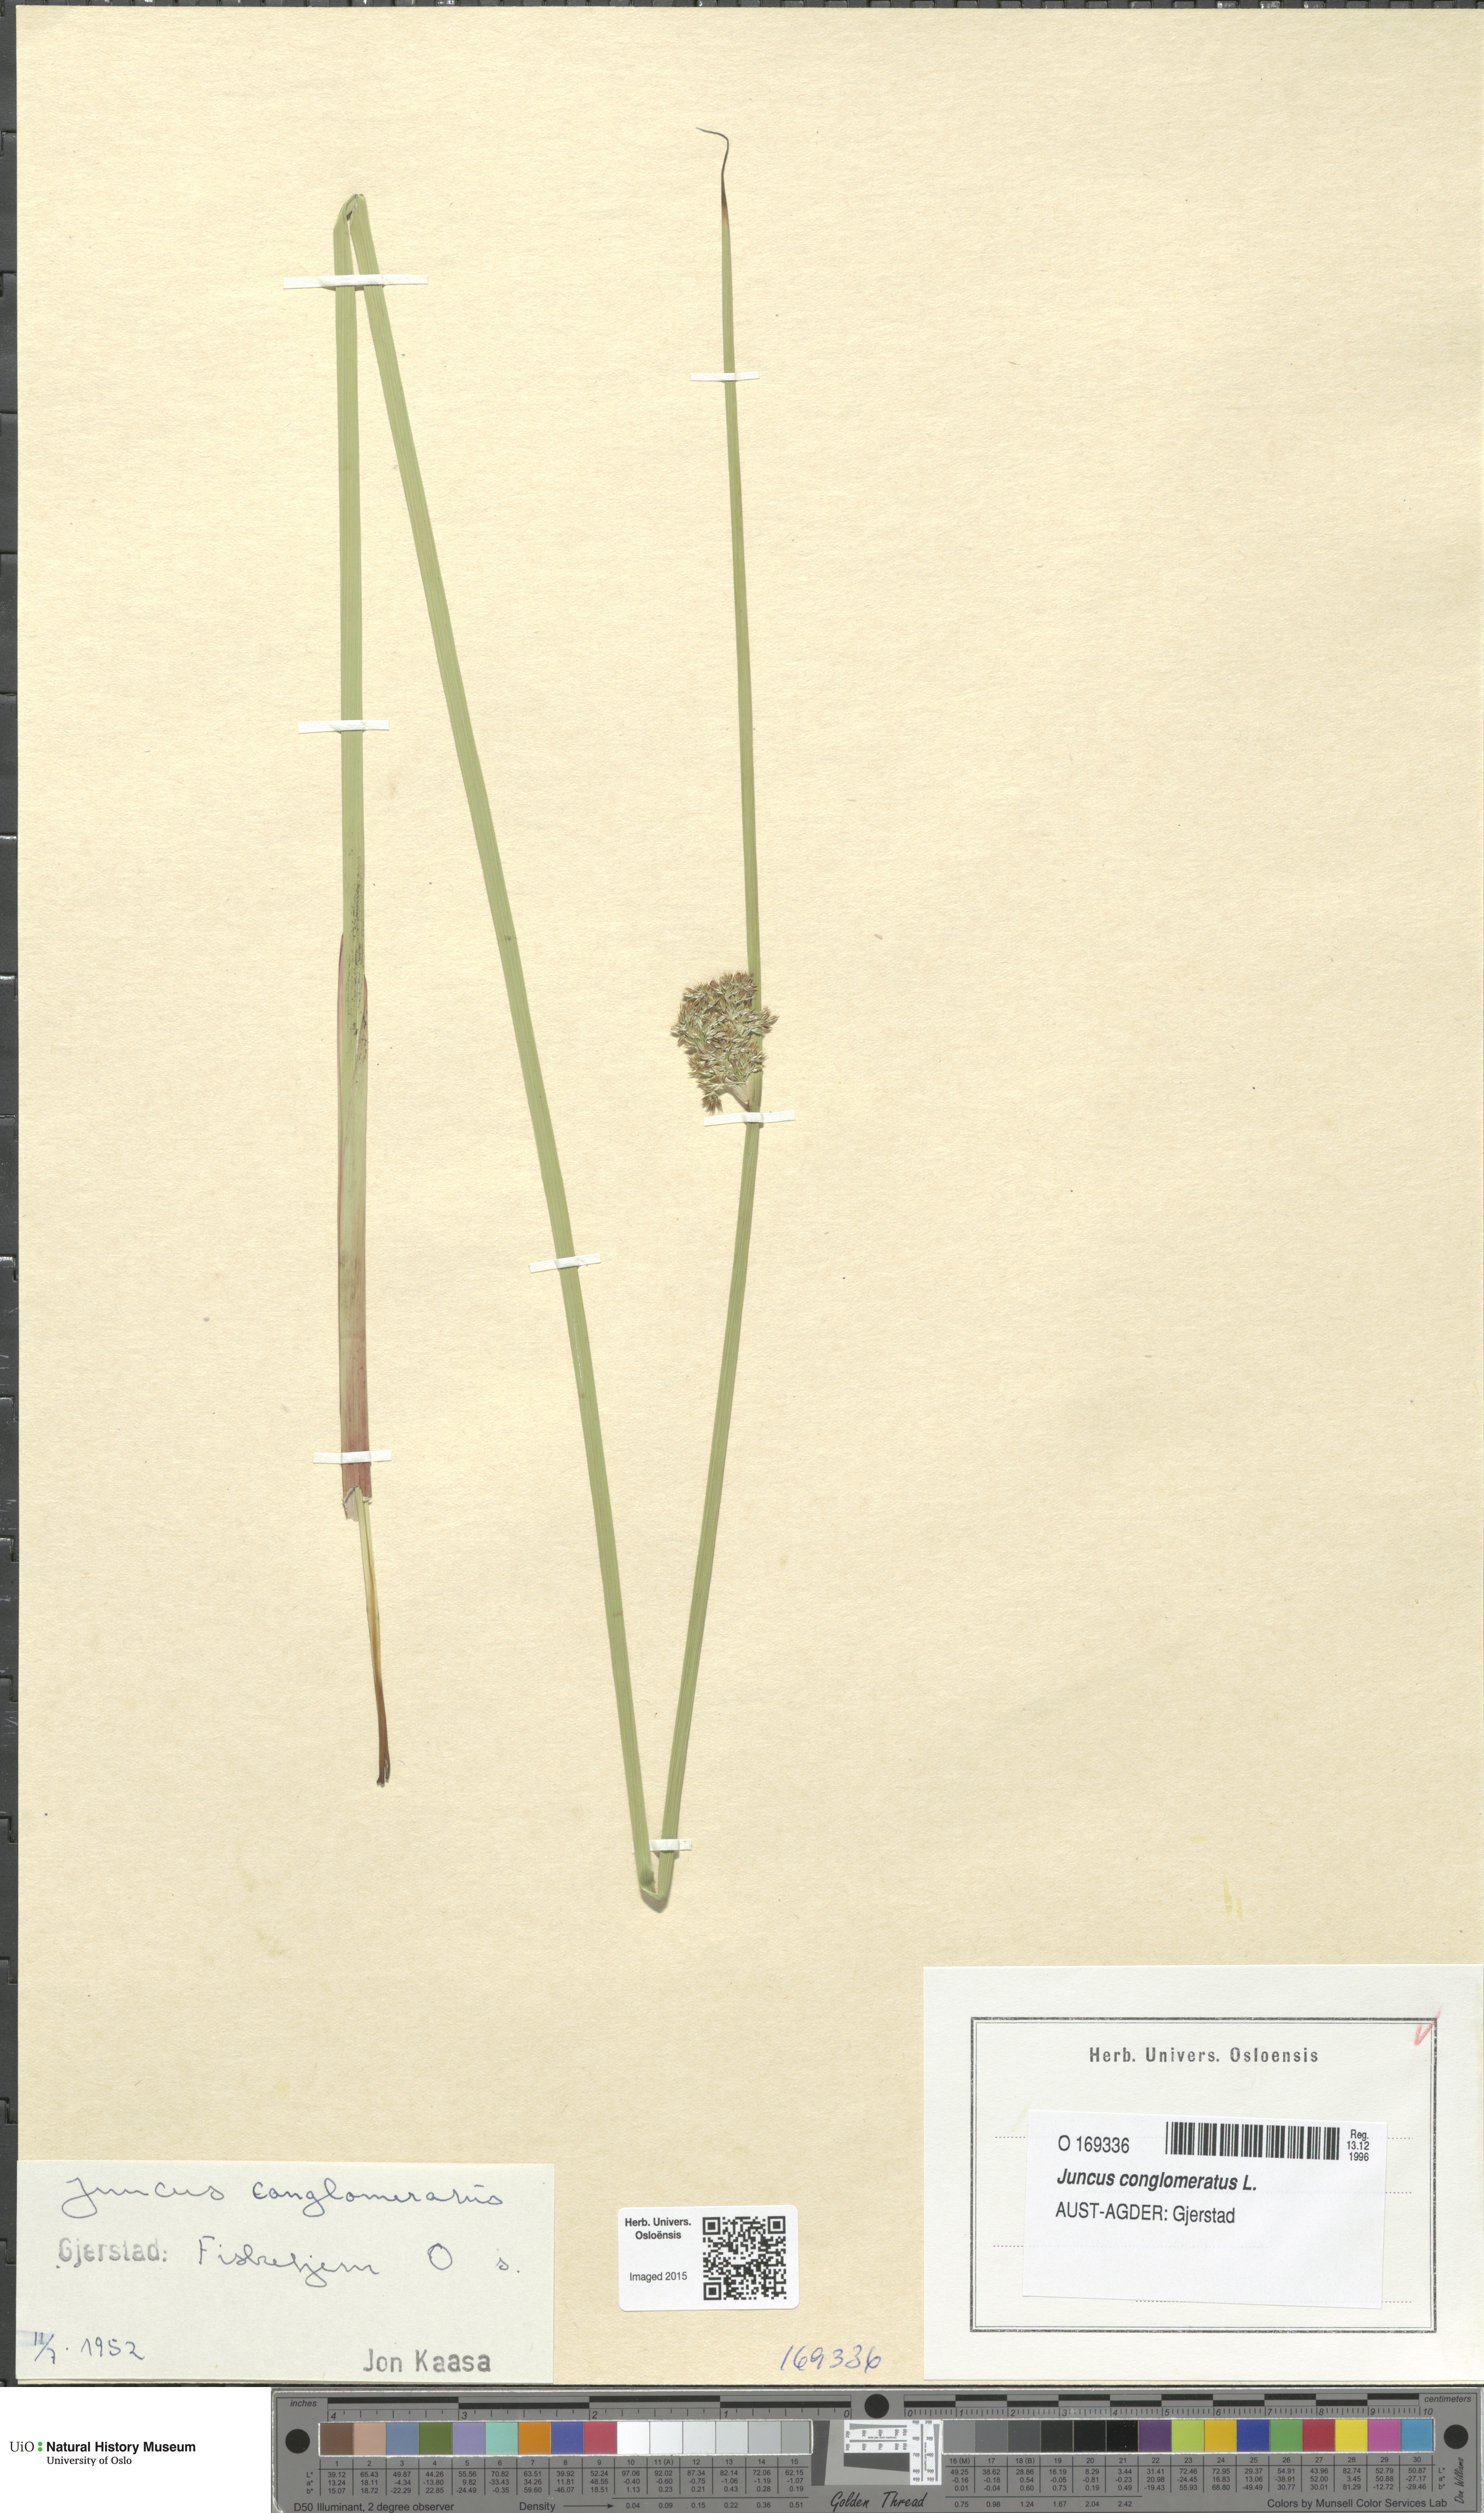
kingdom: Plantae
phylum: Tracheophyta
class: Liliopsida
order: Poales
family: Juncaceae
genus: Juncus
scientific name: Juncus conglomeratus
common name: Compact rush
